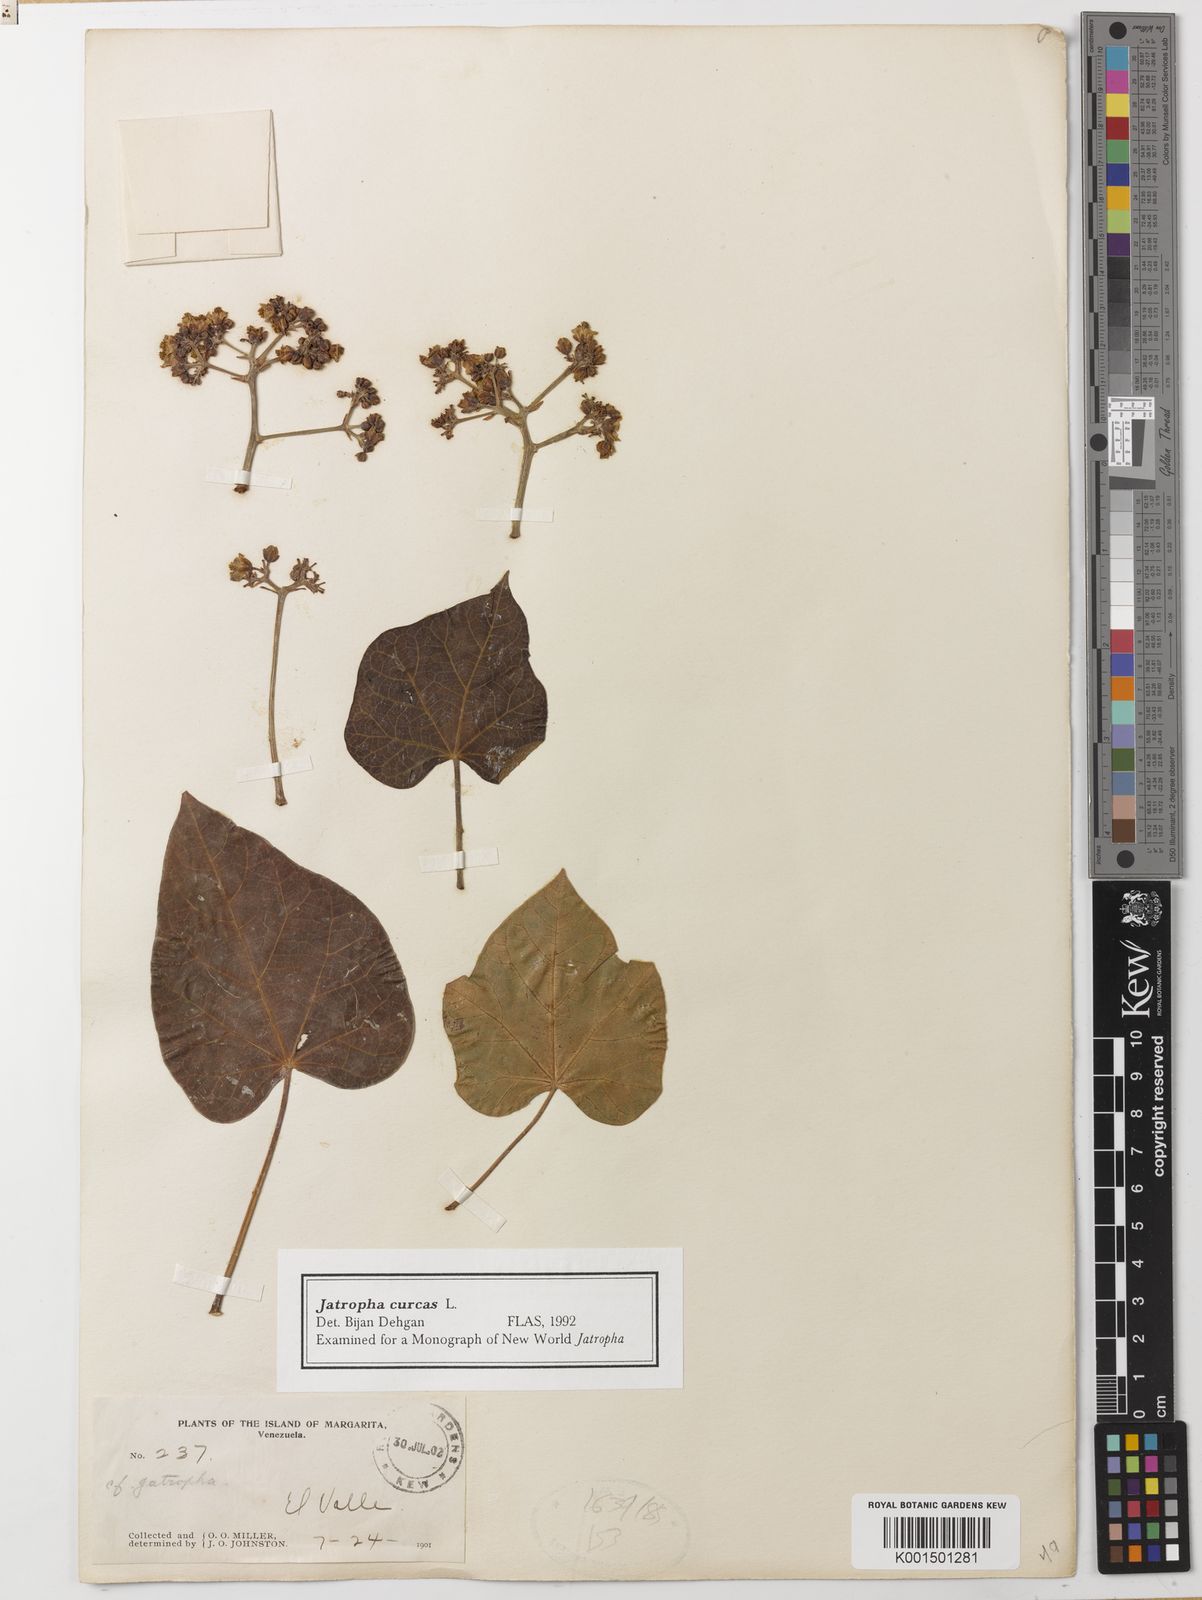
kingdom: Plantae
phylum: Tracheophyta
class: Magnoliopsida
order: Malpighiales
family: Euphorbiaceae
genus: Jatropha
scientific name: Jatropha curcas
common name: Barbados nut
